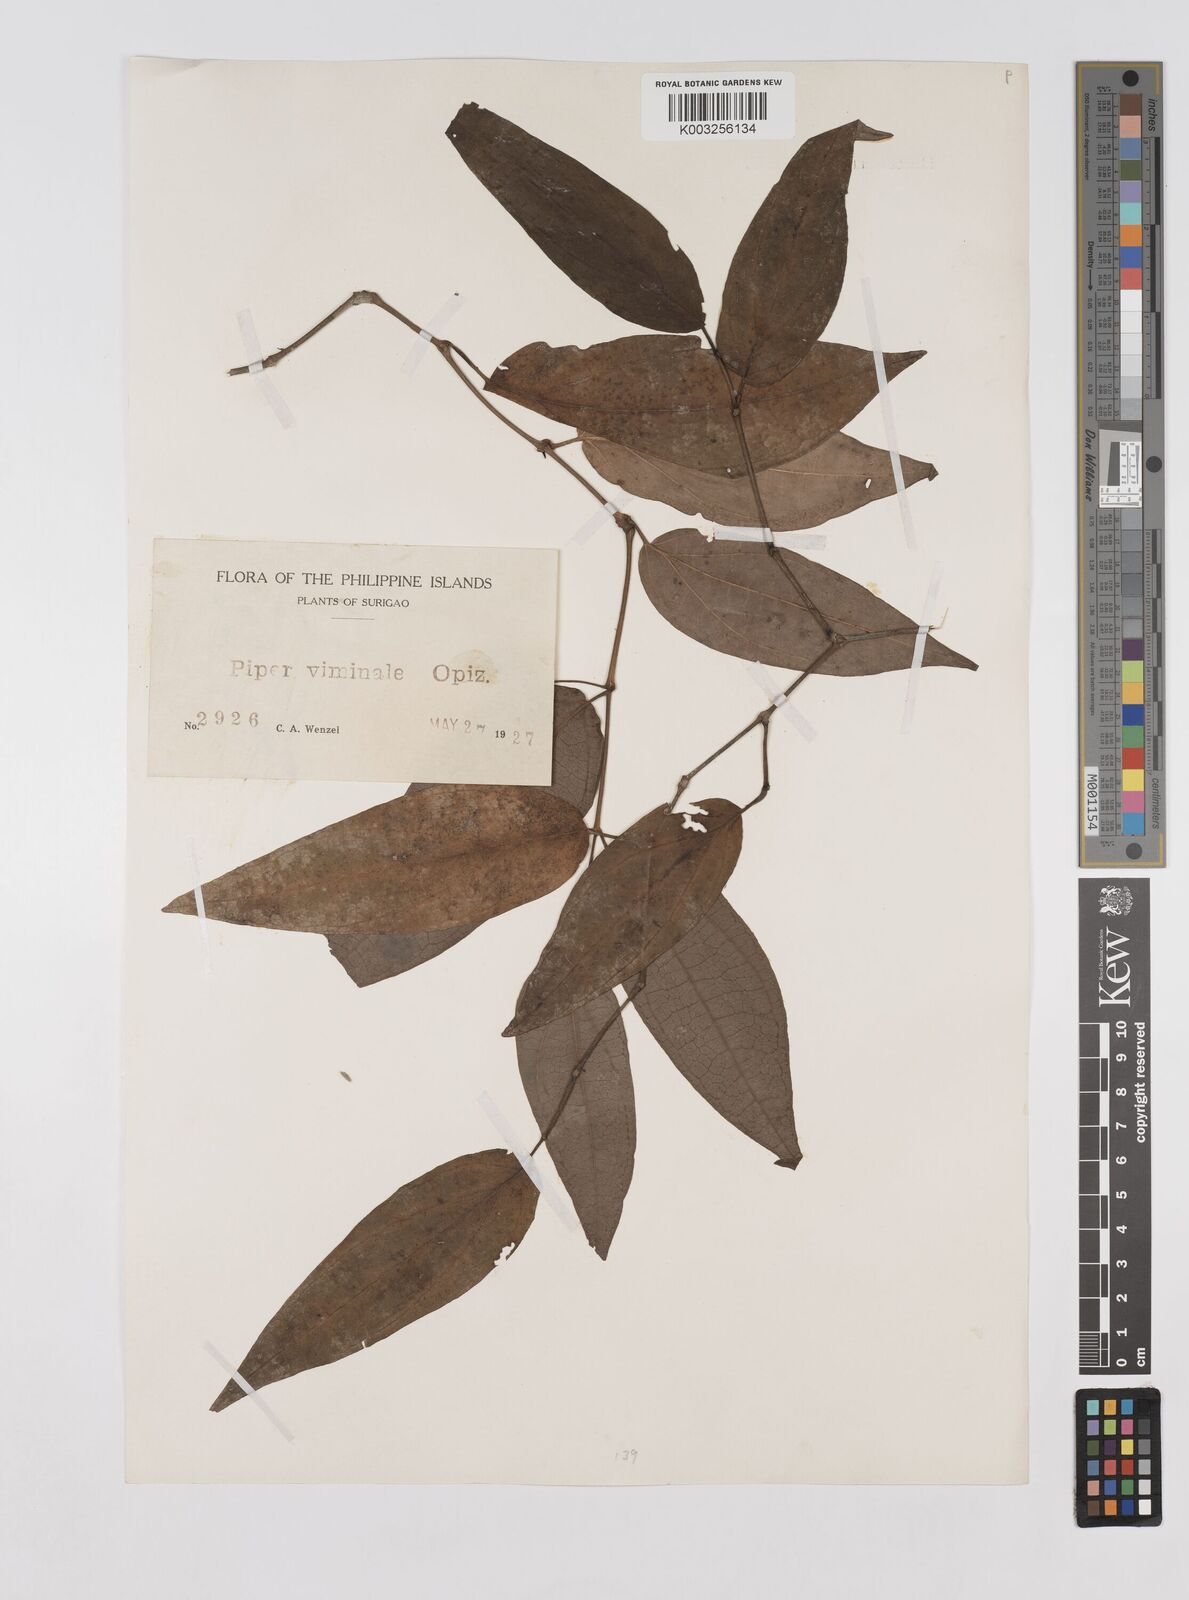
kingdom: Plantae
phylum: Tracheophyta
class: Magnoliopsida
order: Piperales
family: Piperaceae
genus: Piper
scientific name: Piper lanatum
